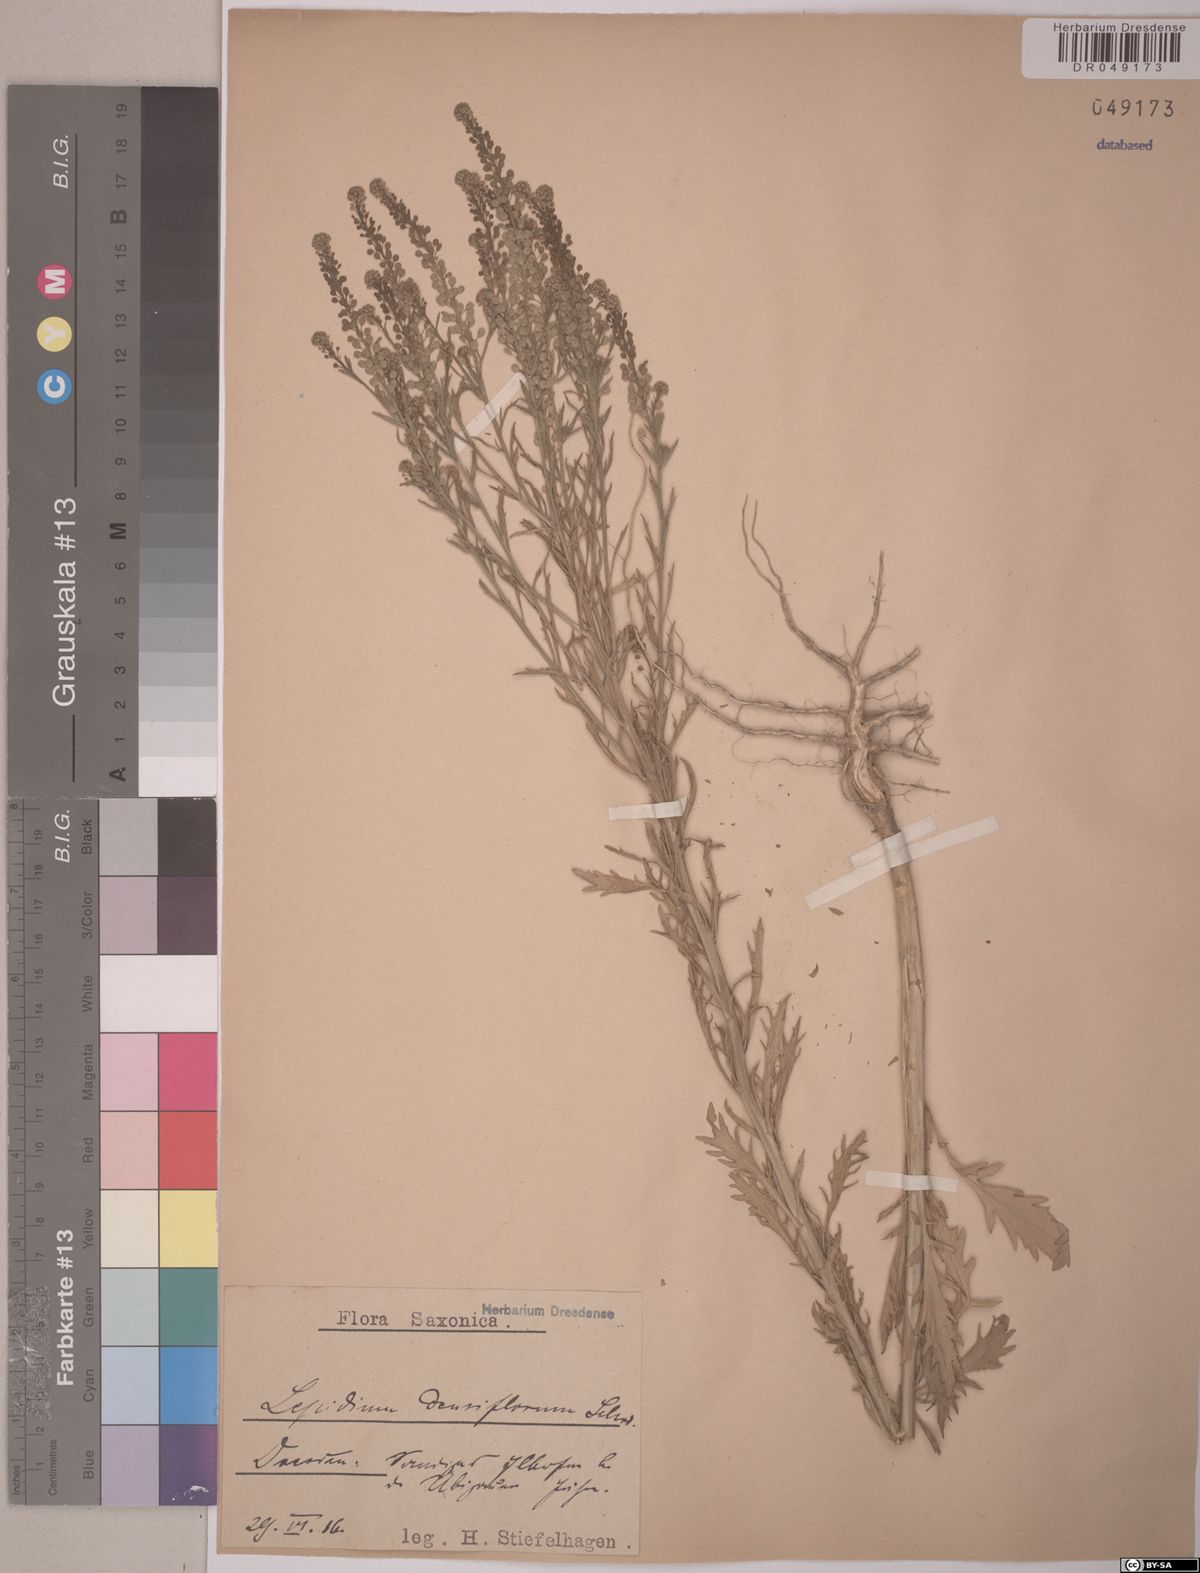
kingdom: Plantae
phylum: Tracheophyta
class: Magnoliopsida
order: Brassicales
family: Brassicaceae
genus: Lepidium
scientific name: Lepidium densiflorum
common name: Miner's pepperwort
